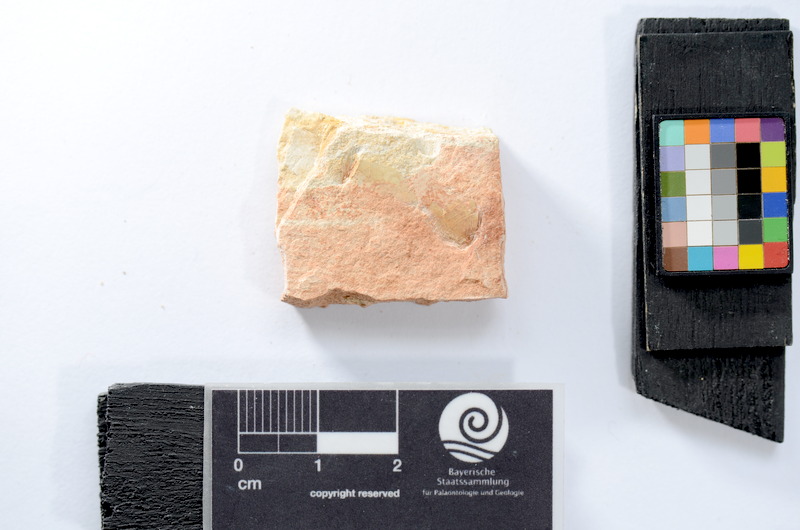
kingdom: Animalia
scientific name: Animalia
